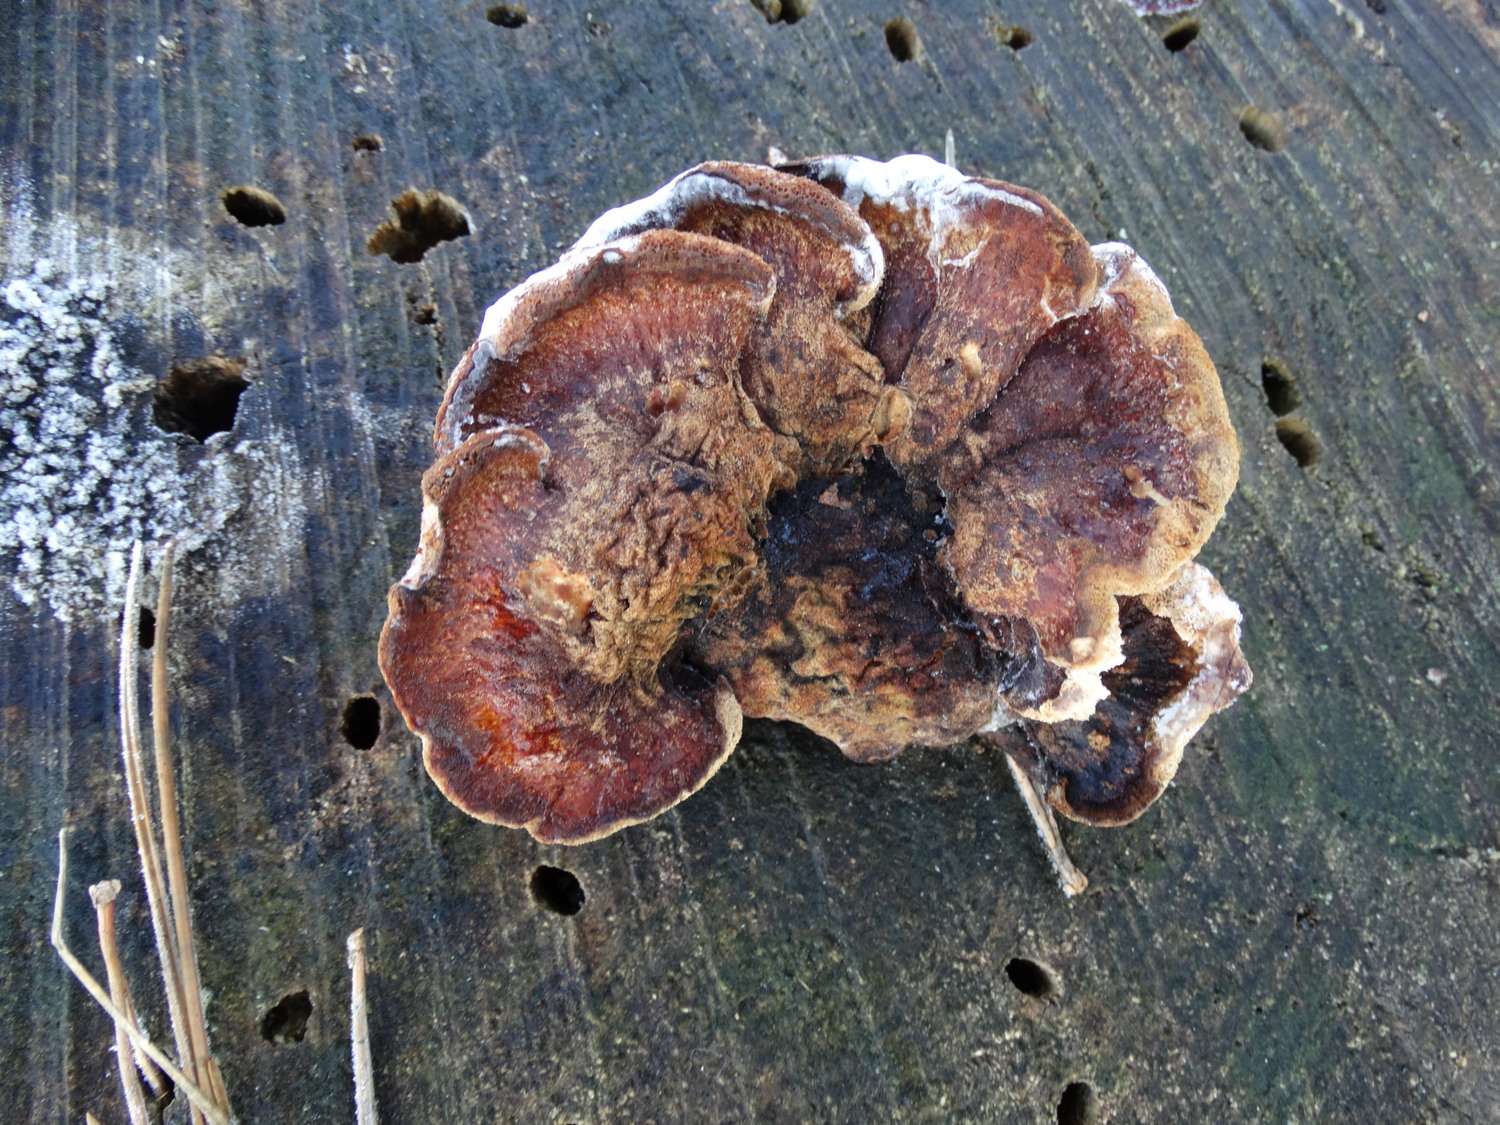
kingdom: Fungi
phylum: Basidiomycota
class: Agaricomycetes
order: Polyporales
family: Ischnodermataceae
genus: Ischnoderma
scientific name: Ischnoderma benzoinum
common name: gran-tjæreporesvamp
